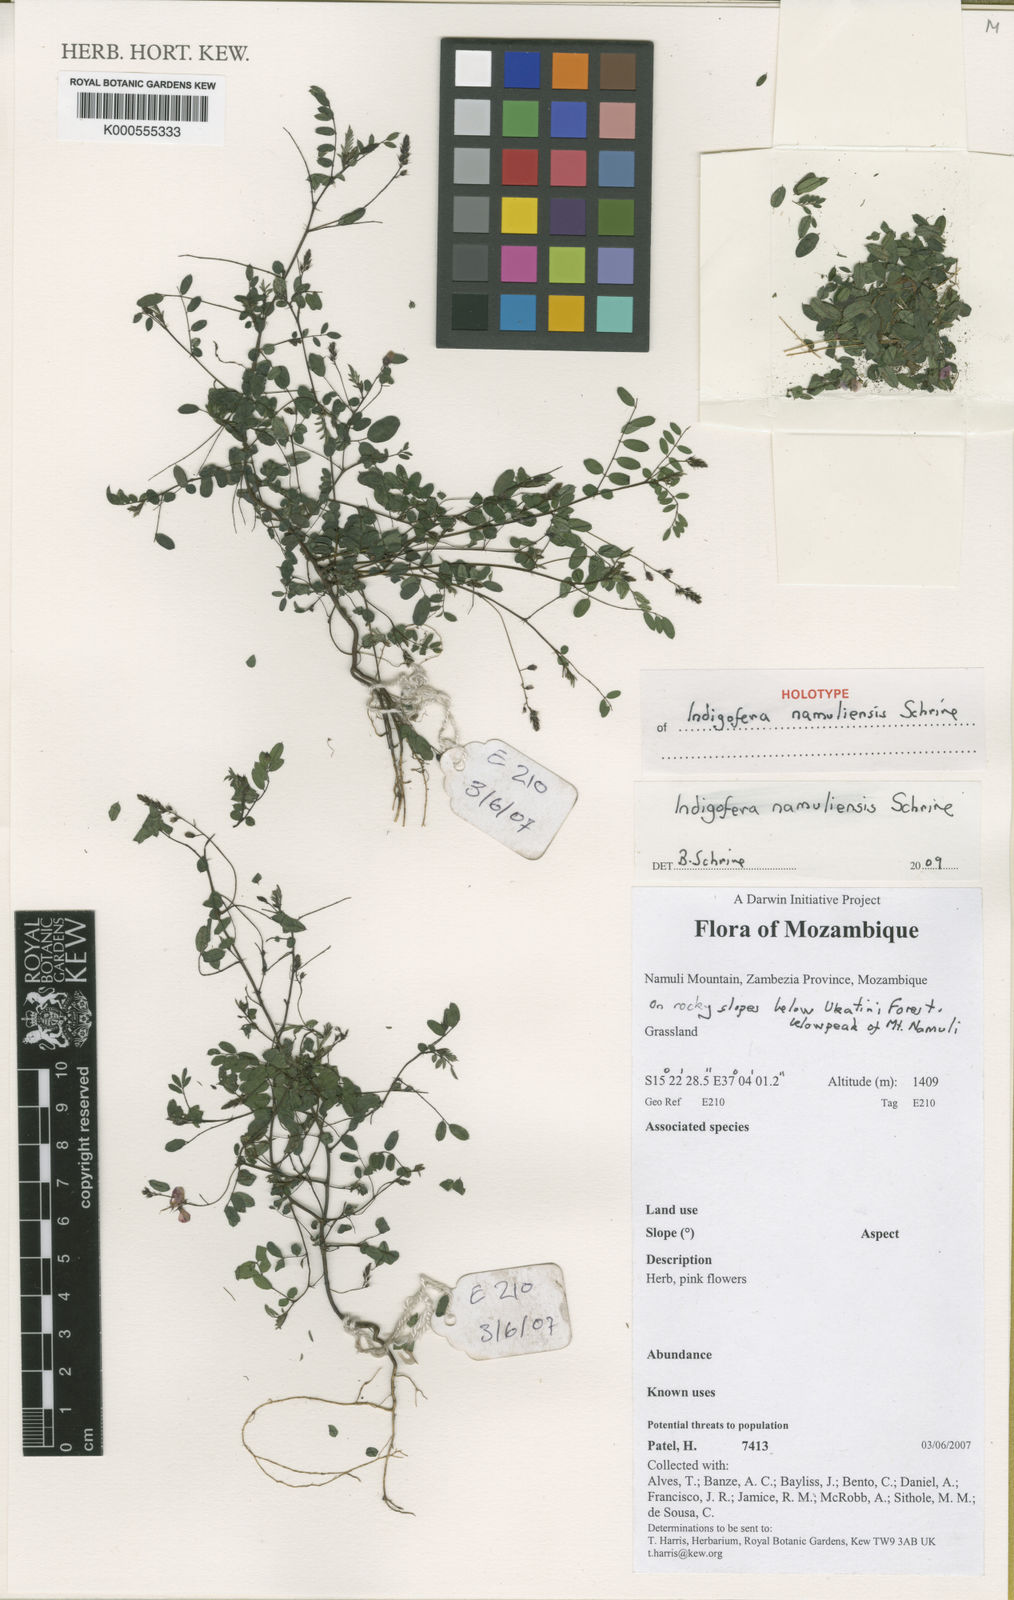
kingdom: Plantae
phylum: Tracheophyta
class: Magnoliopsida
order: Fabales
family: Fabaceae
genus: Indigofera
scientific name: Indigofera namuliensis
